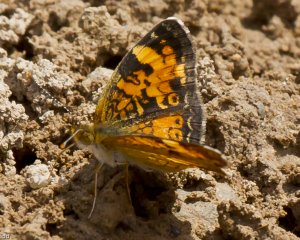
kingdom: Animalia
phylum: Arthropoda
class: Insecta
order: Lepidoptera
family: Nymphalidae
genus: Phyciodes
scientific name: Phyciodes tharos
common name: Northern Crescent
